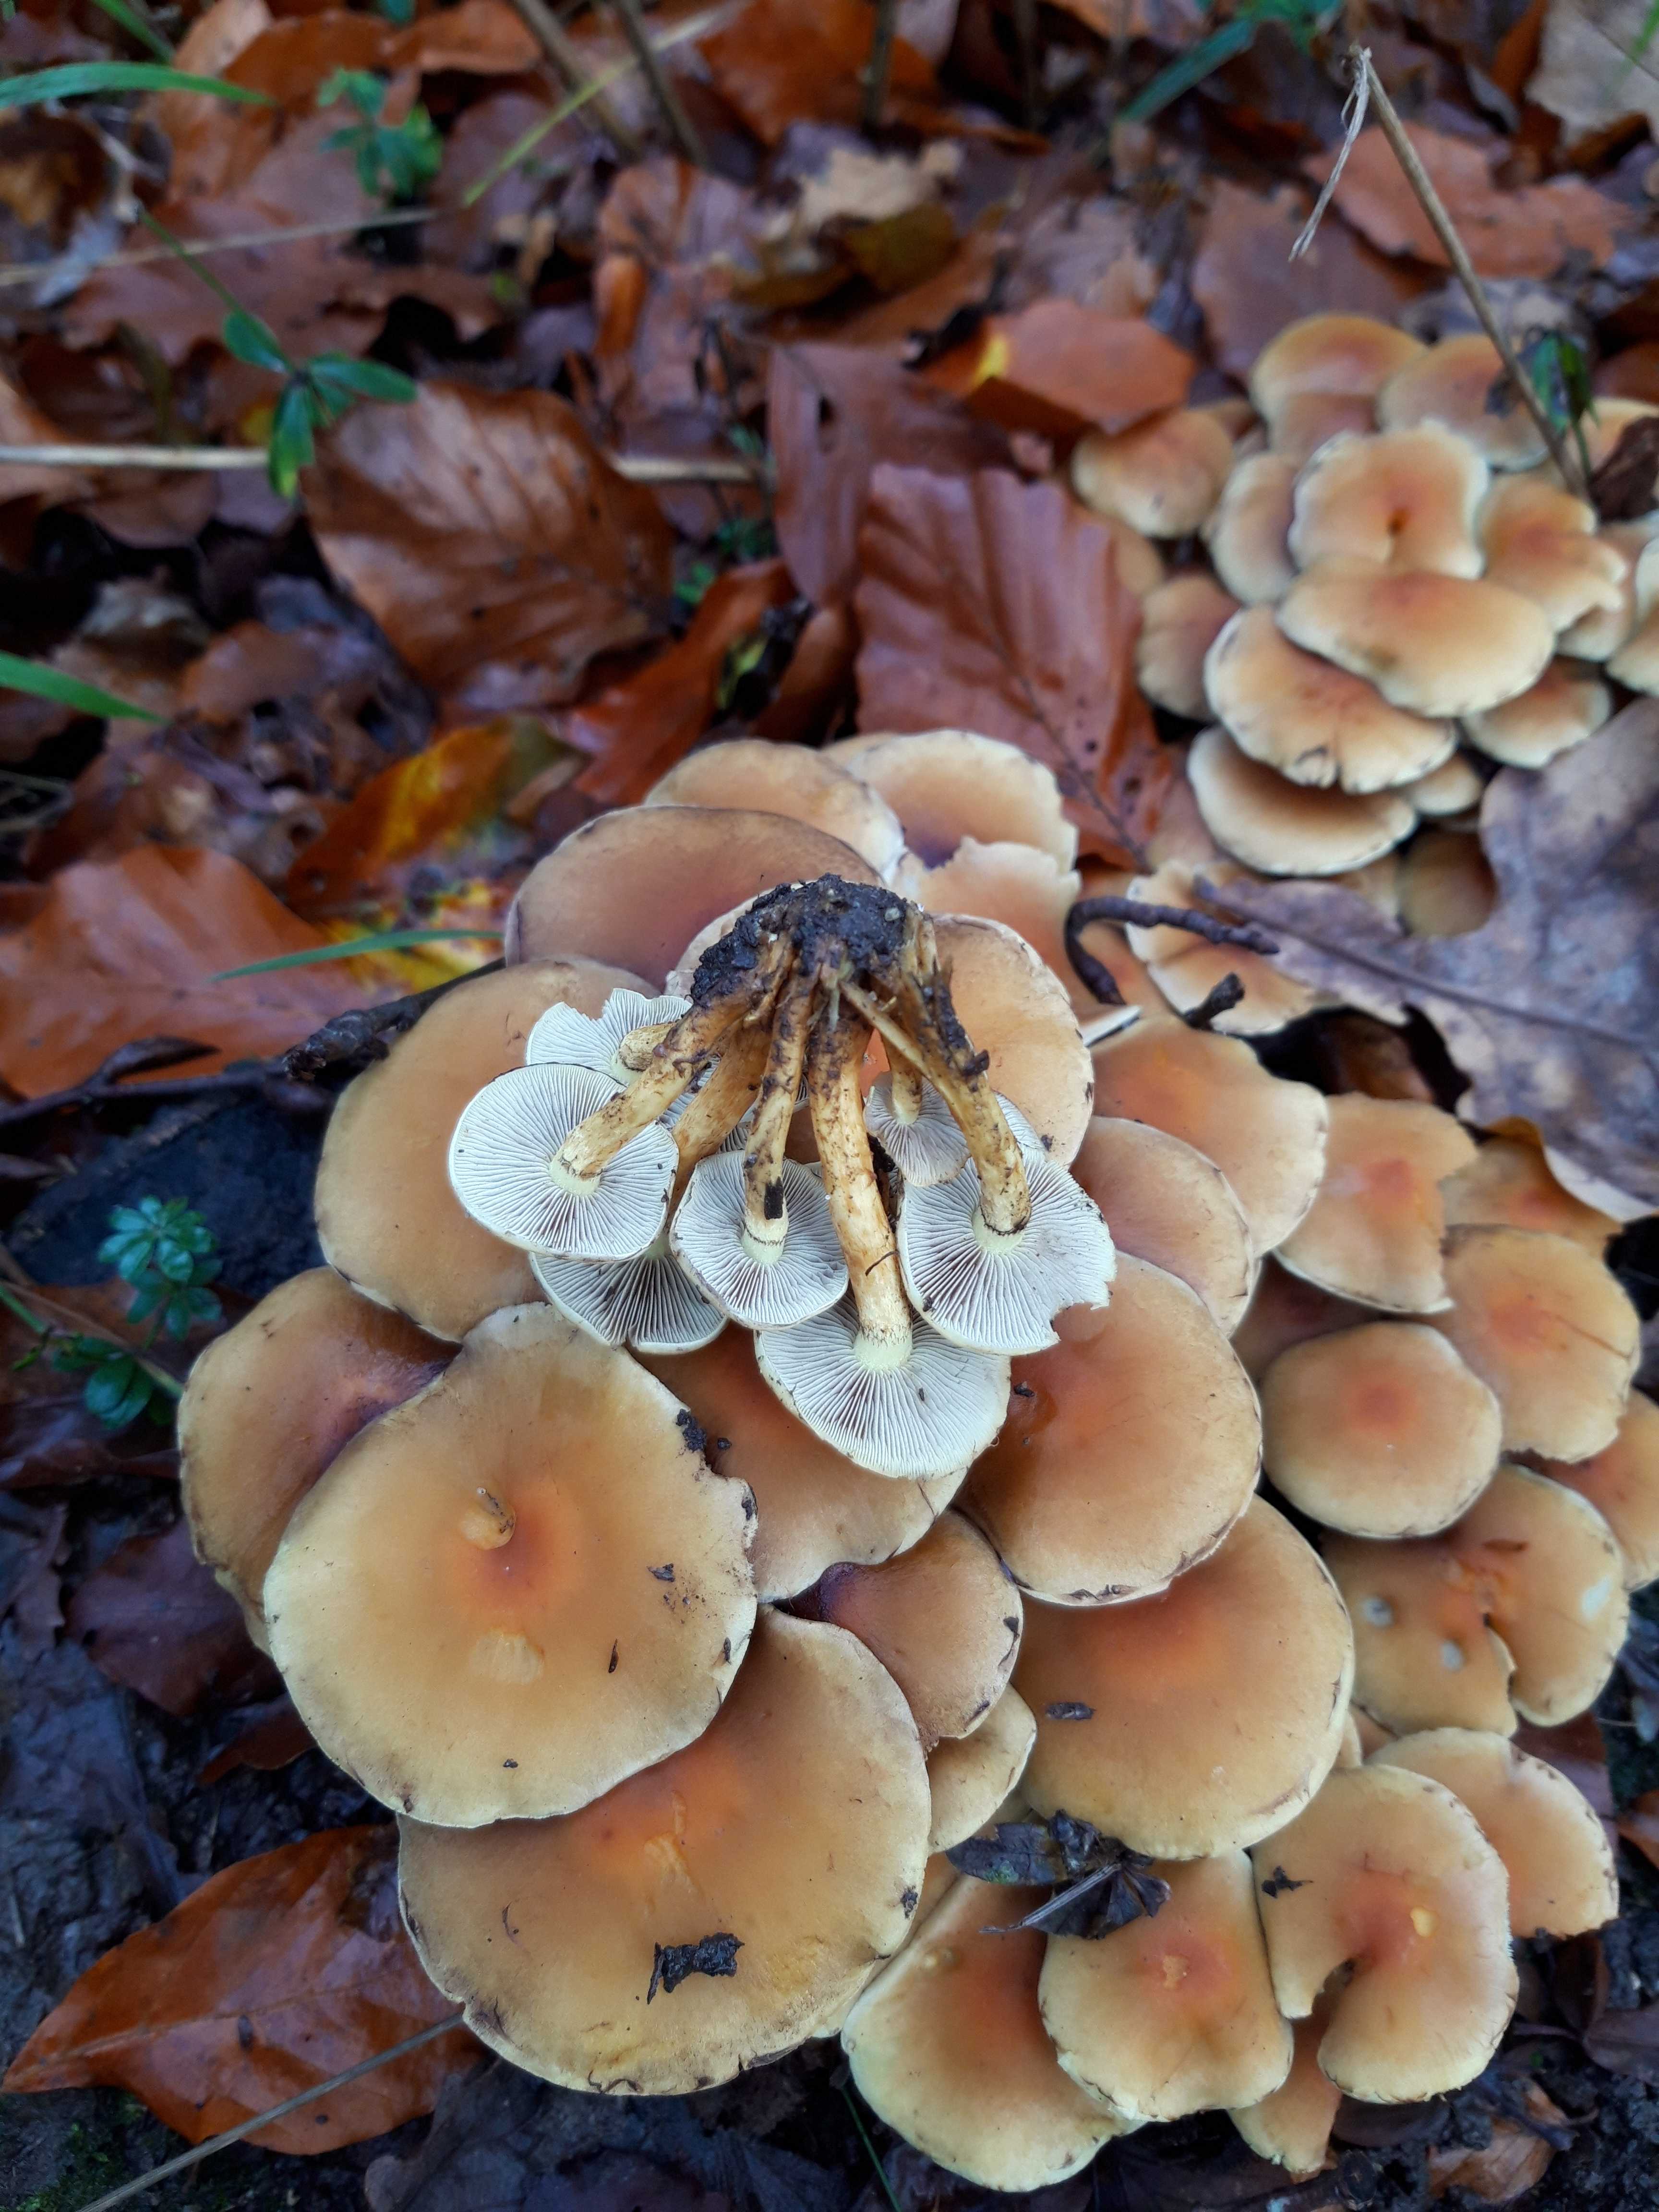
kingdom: Fungi
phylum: Basidiomycota
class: Agaricomycetes
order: Agaricales
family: Strophariaceae
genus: Hypholoma
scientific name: Hypholoma fasciculare
